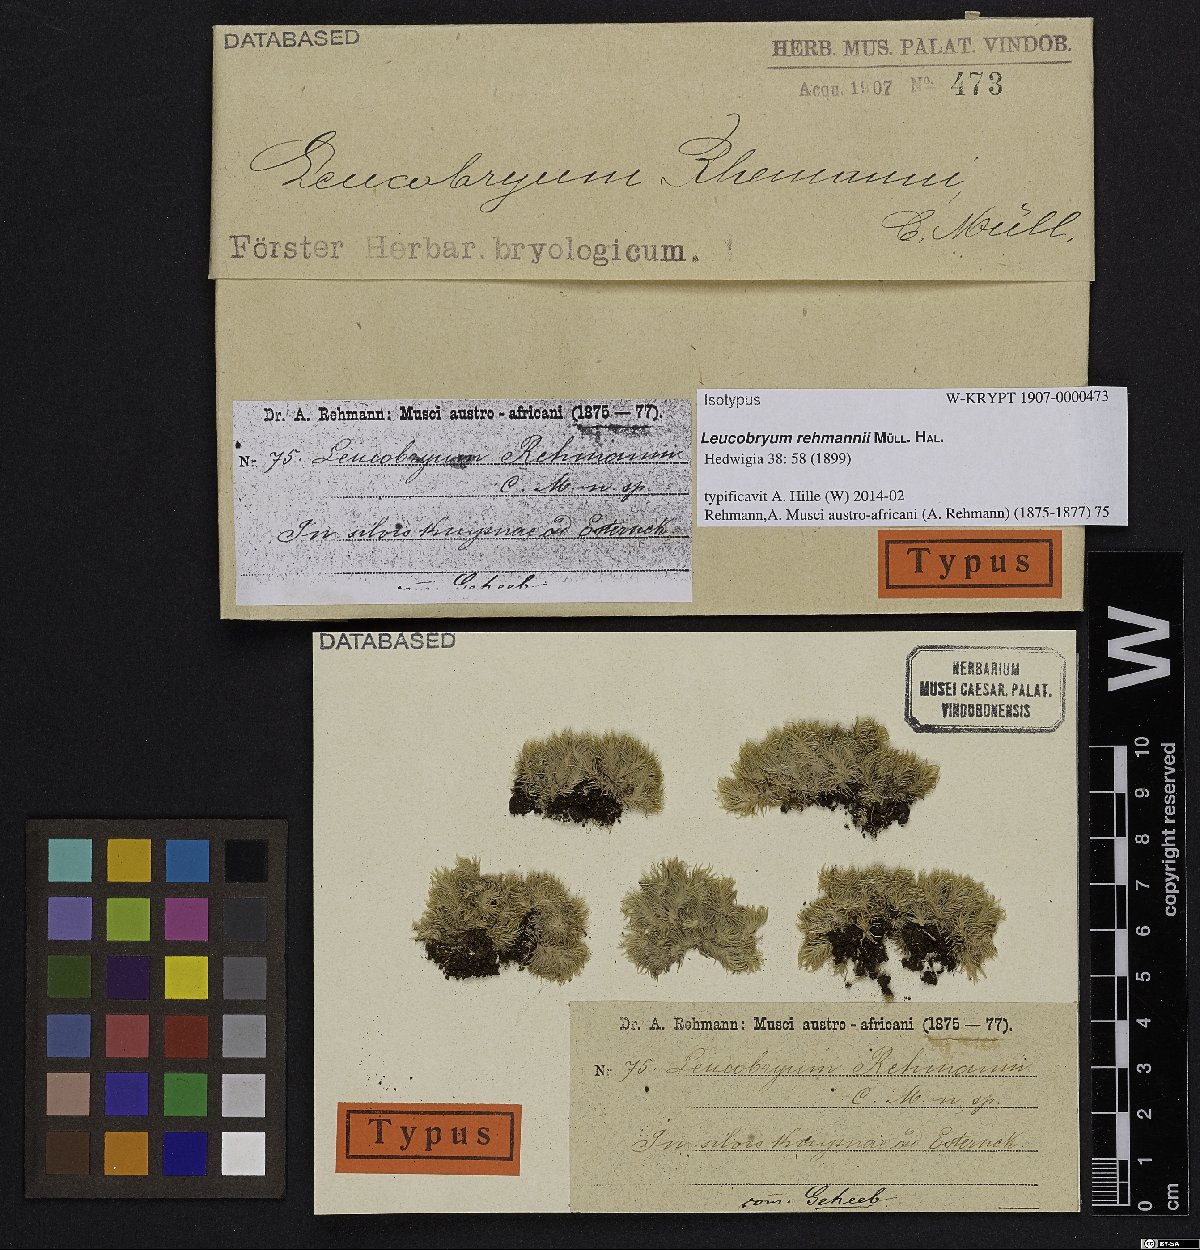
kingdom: Plantae
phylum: Bryophyta
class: Bryopsida
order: Dicranales
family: Leucobryaceae
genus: Leucobryum
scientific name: Leucobryum rehmannii
